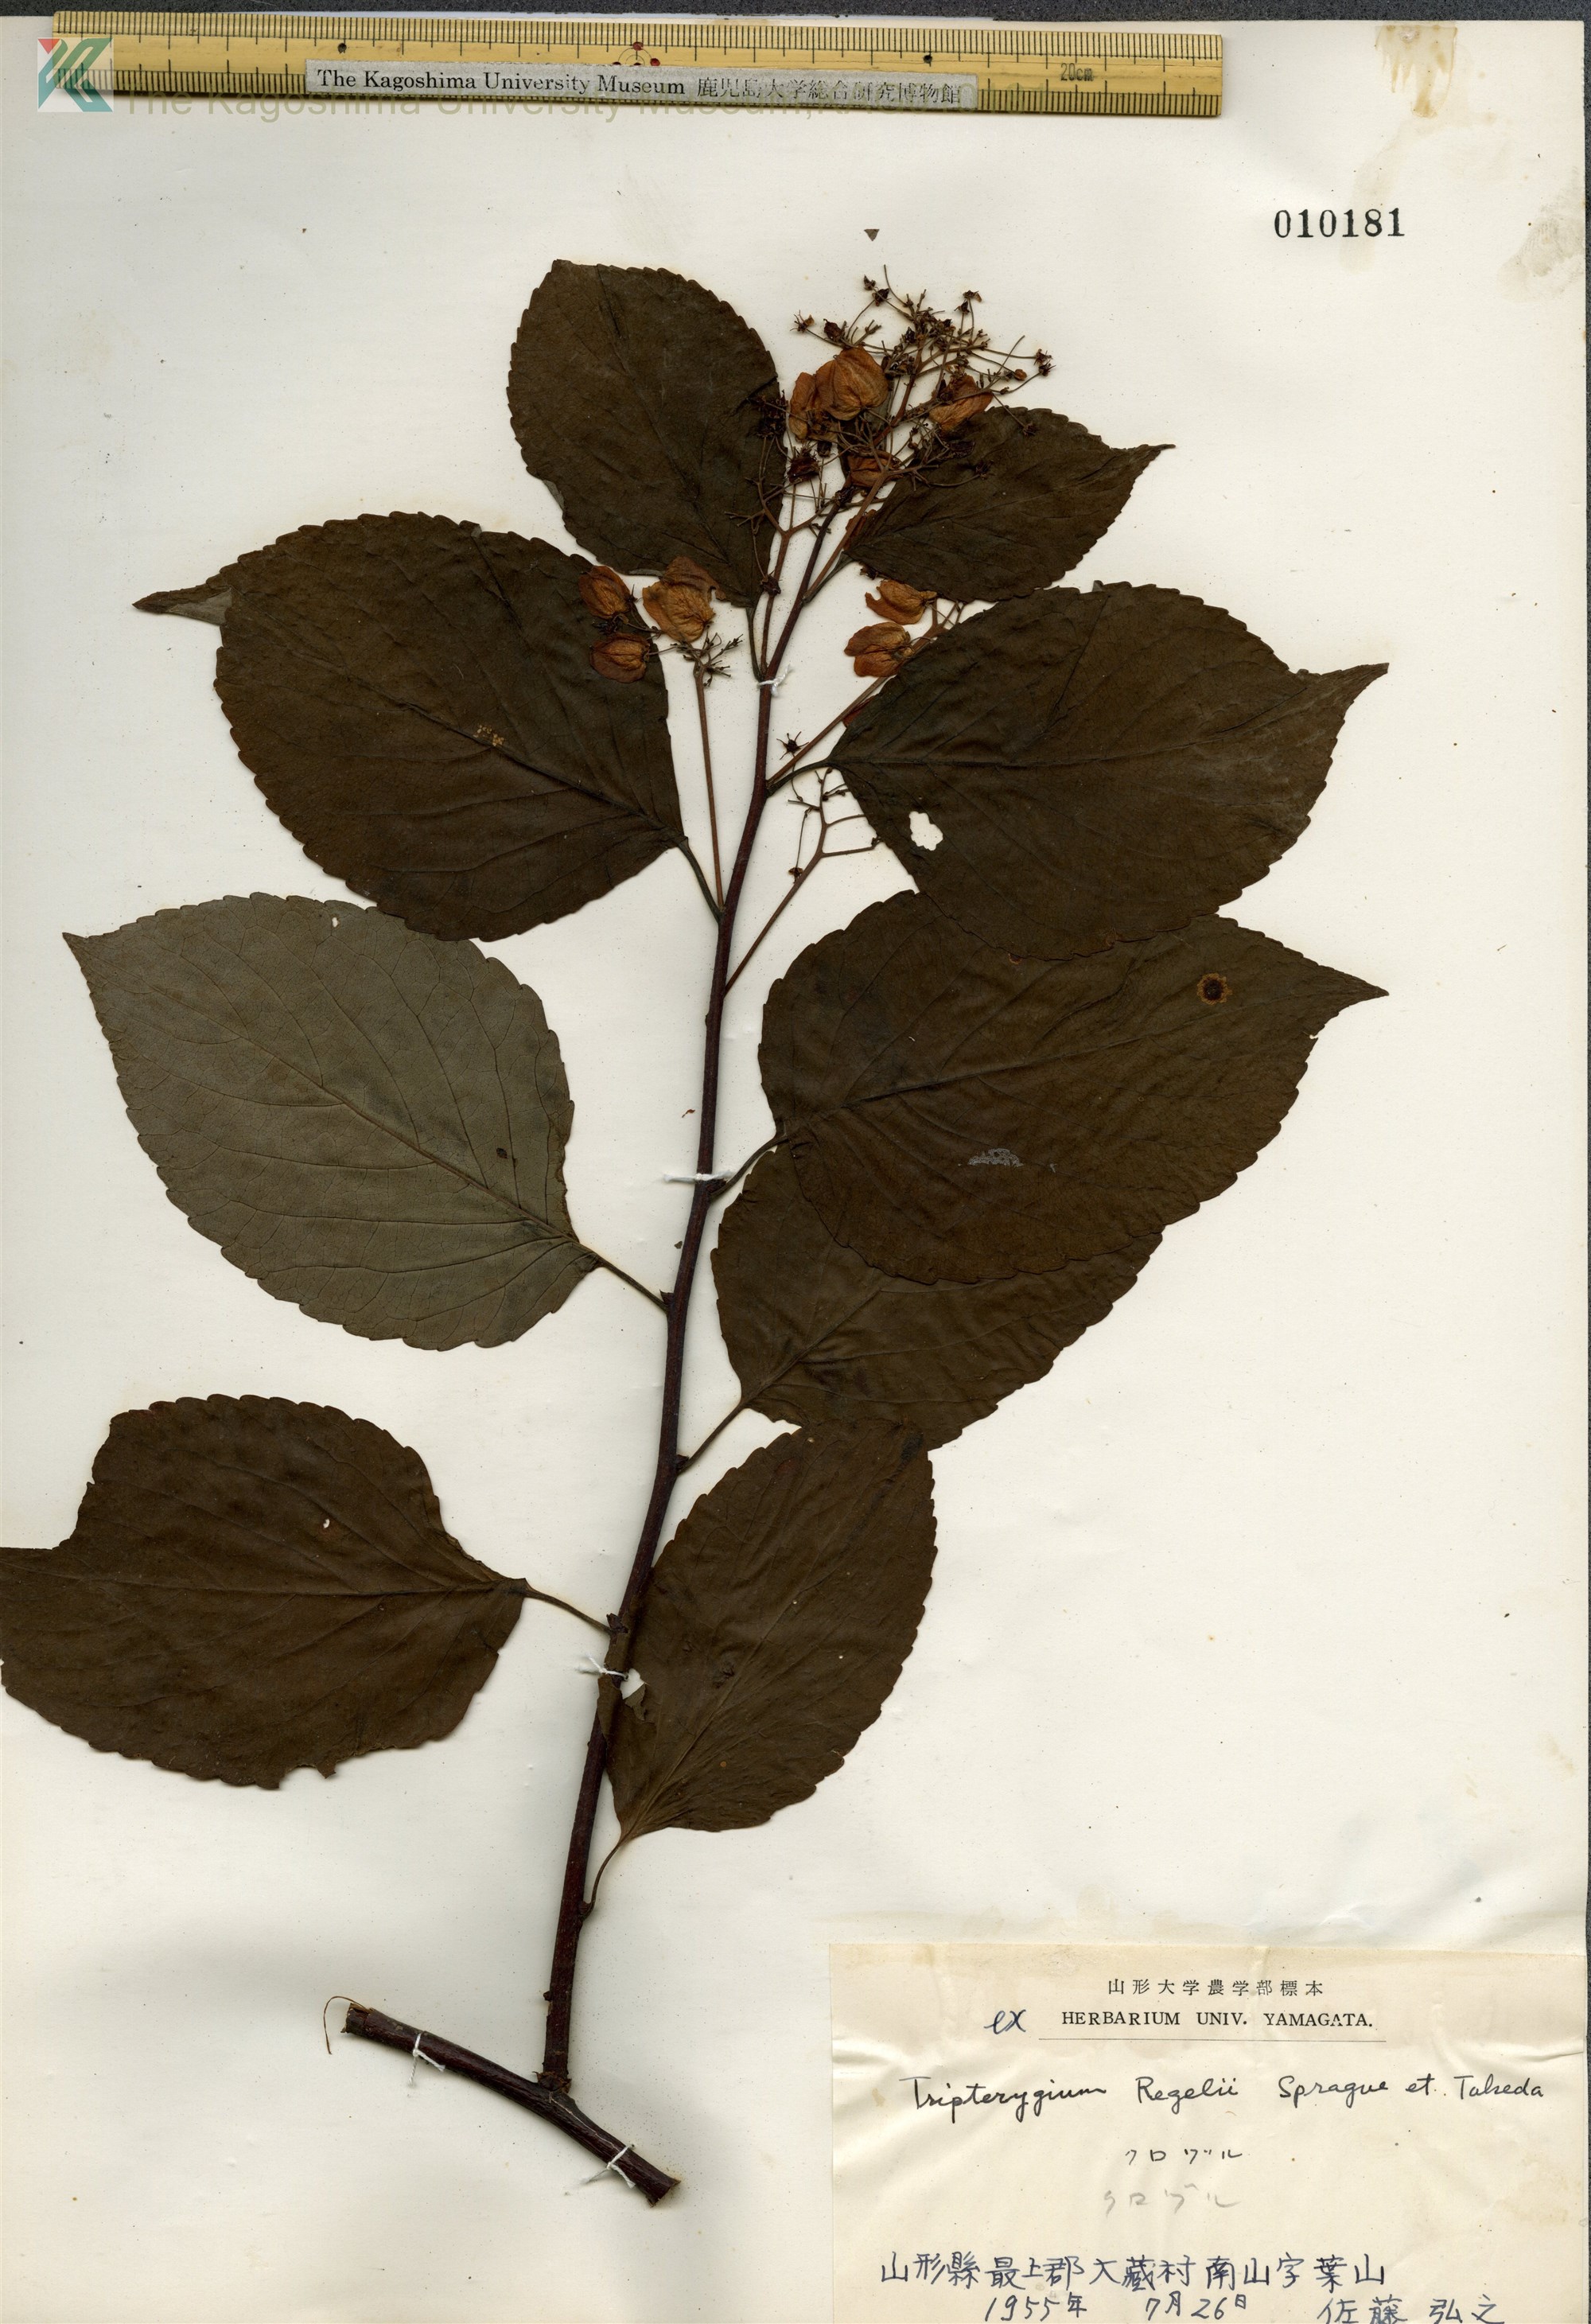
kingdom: Plantae
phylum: Tracheophyta
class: Magnoliopsida
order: Celastrales
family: Celastraceae
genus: Tripterygium
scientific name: Tripterygium wilfordii
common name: クロヅル
